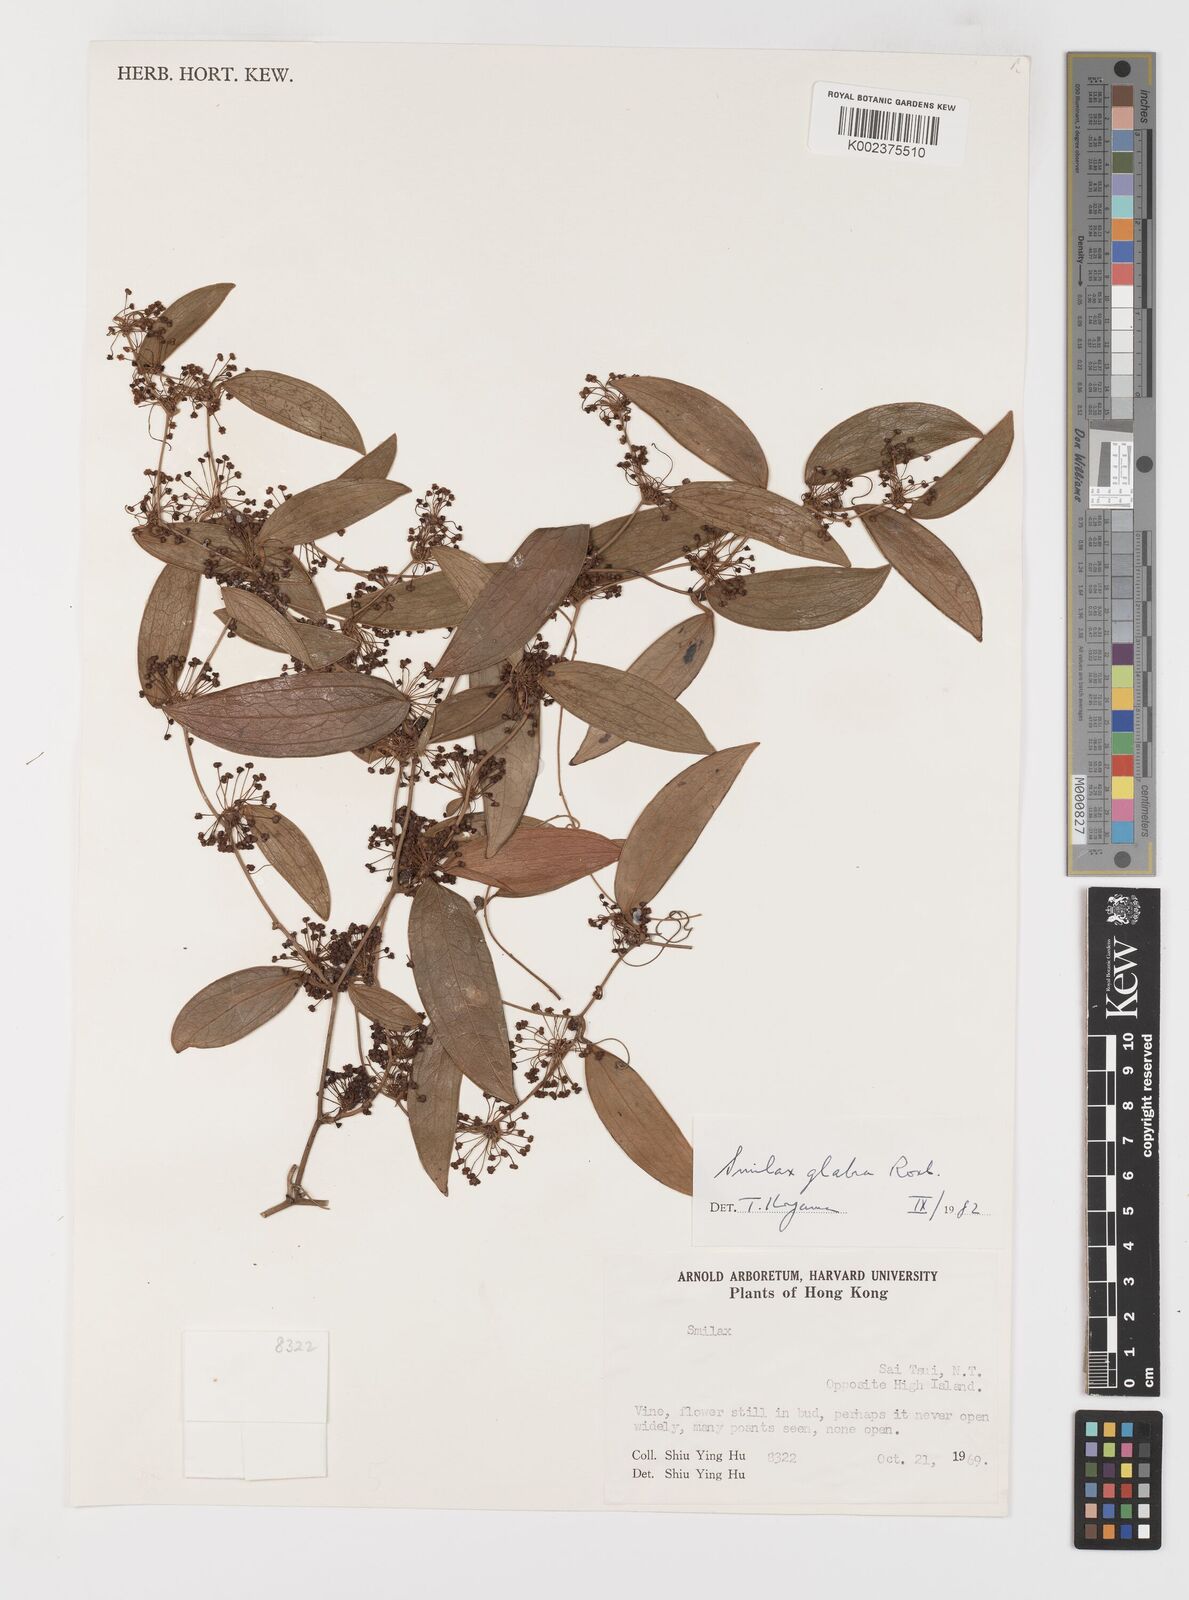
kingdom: Plantae
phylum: Tracheophyta
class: Liliopsida
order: Liliales
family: Smilacaceae
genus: Smilax
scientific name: Smilax glabra
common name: Chinese smilax
